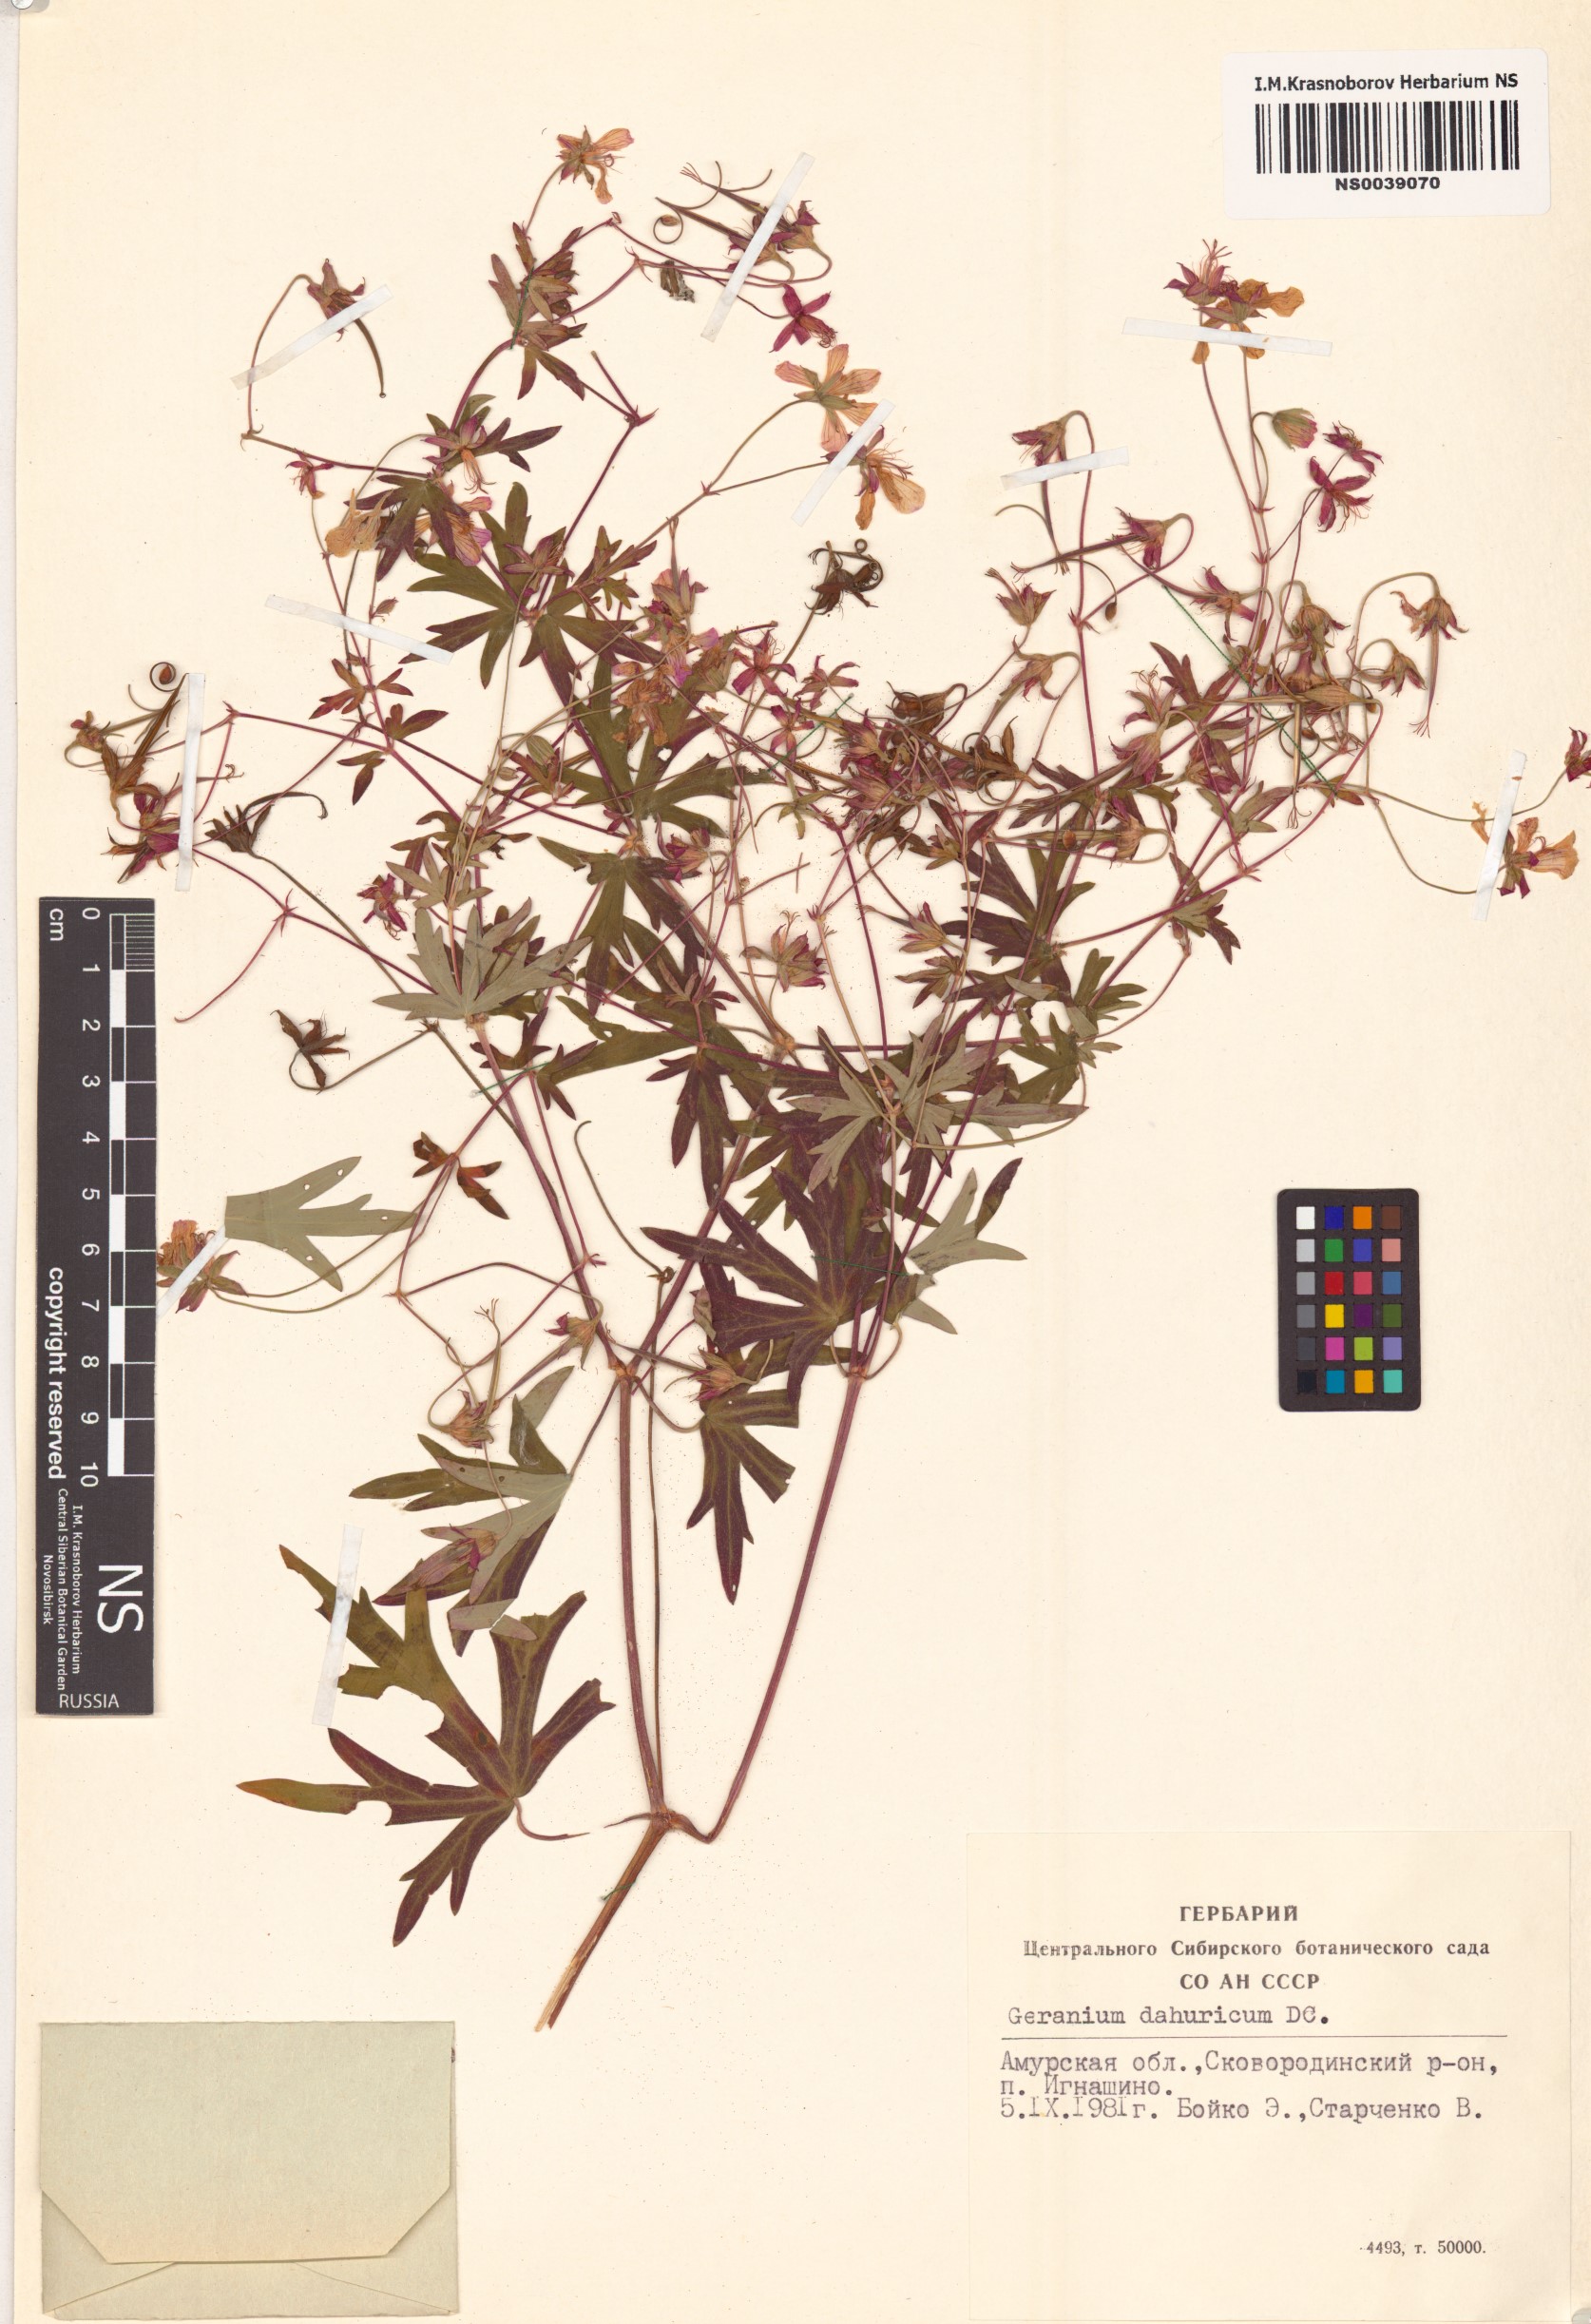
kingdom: Plantae
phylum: Tracheophyta
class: Magnoliopsida
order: Geraniales
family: Geraniaceae
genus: Geranium
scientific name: Geranium dahuricum
